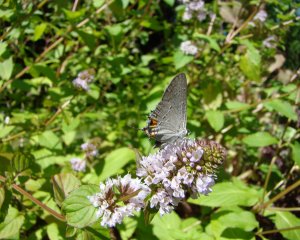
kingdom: Animalia
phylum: Arthropoda
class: Insecta
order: Lepidoptera
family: Lycaenidae
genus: Strymon
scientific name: Strymon melinus
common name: Gray Hairstreak
